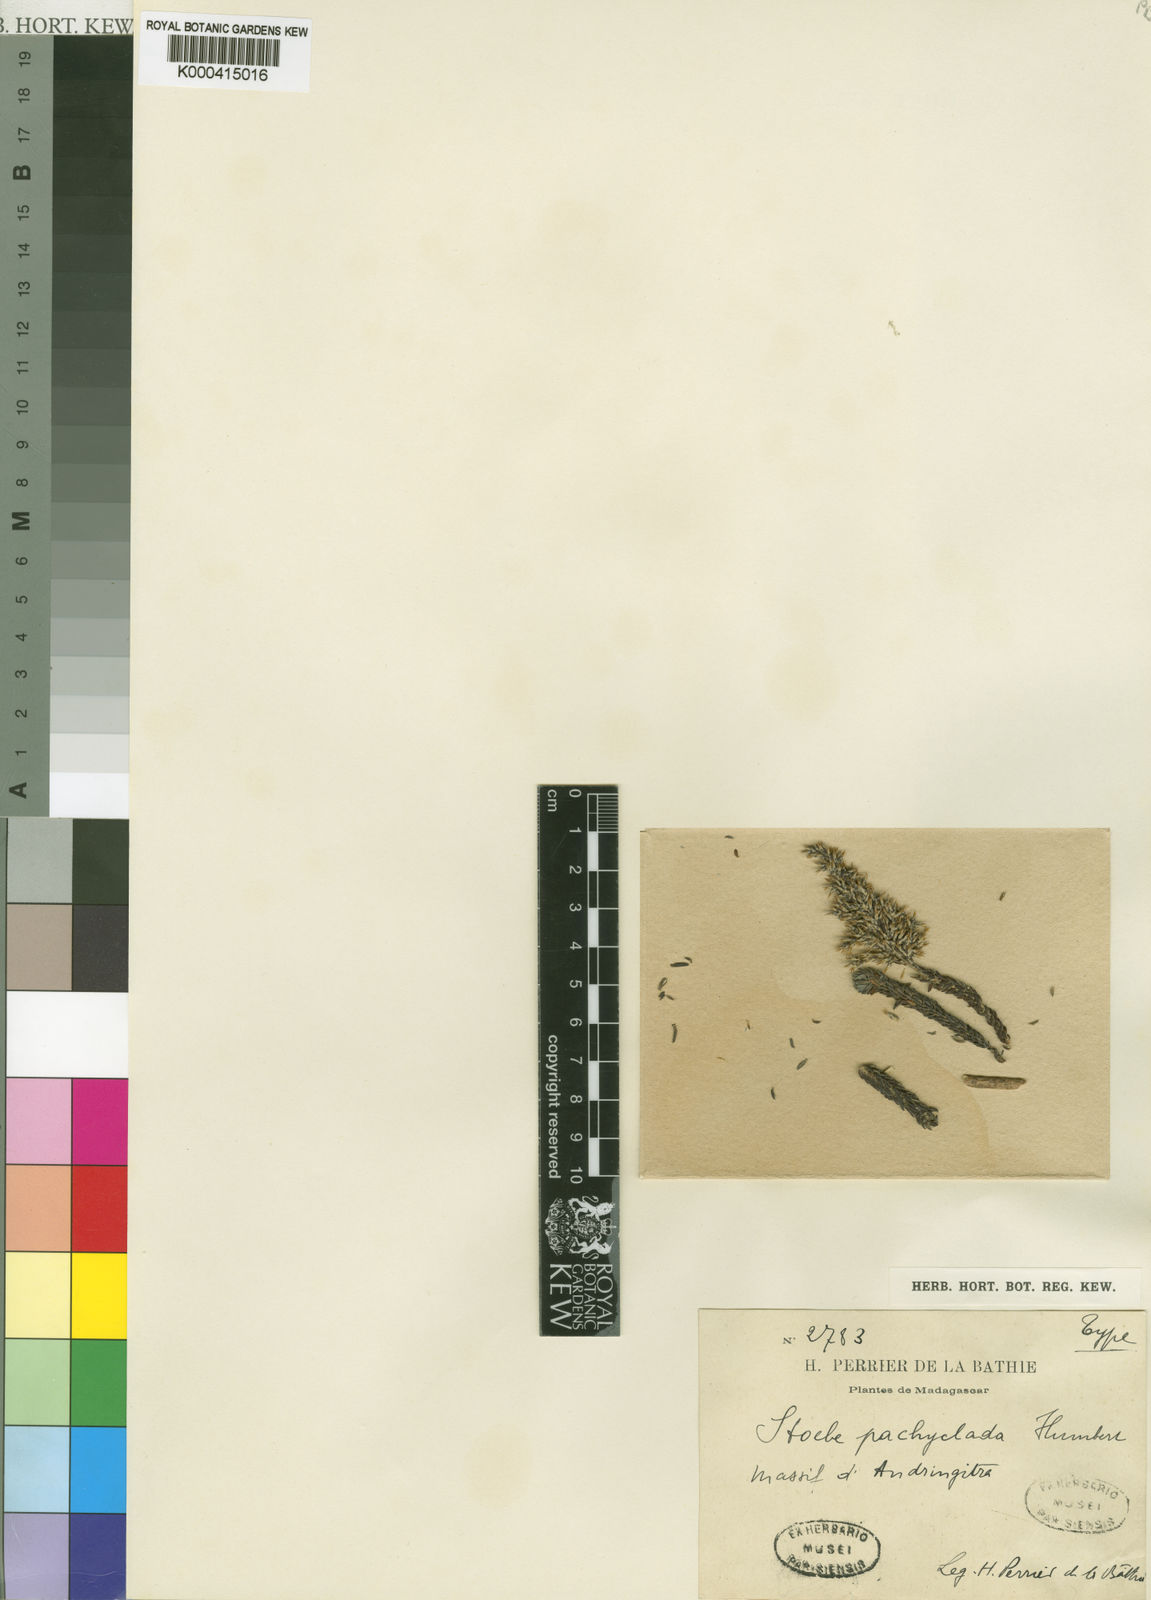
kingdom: Plantae
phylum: Tracheophyta
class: Magnoliopsida
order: Asterales
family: Asteraceae
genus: Seriphium
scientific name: Seriphium pachycladum
